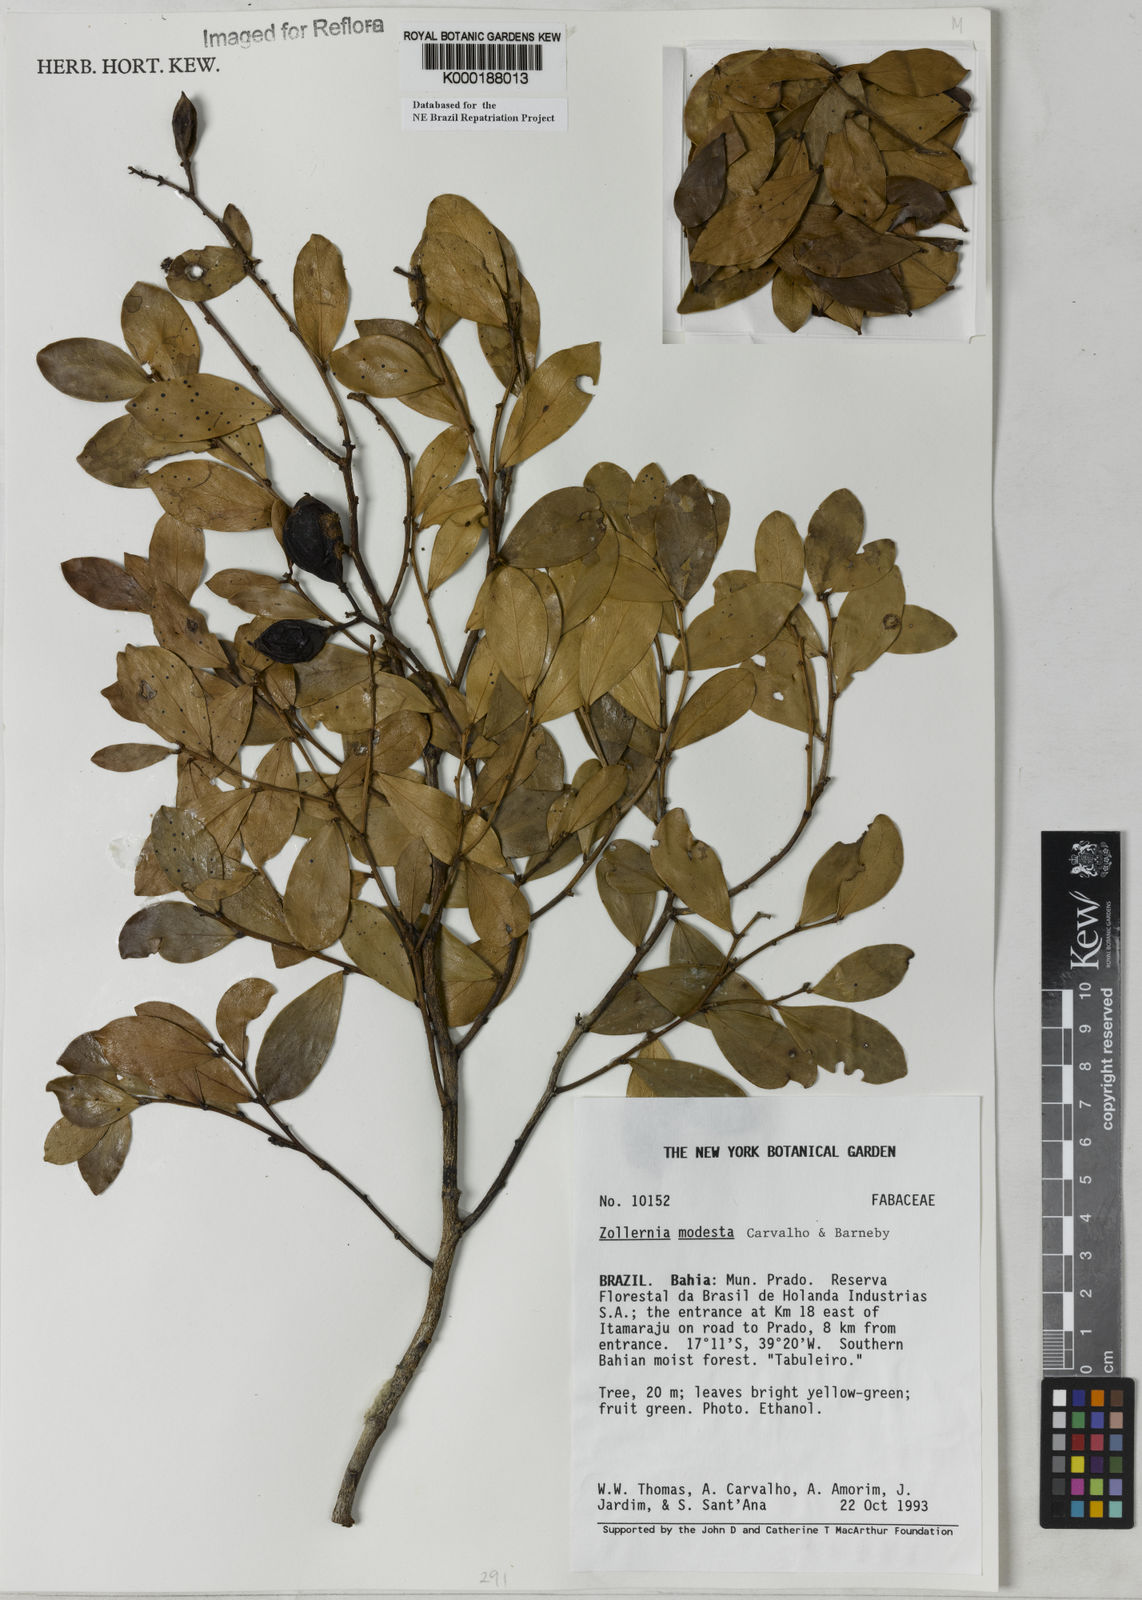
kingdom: Plantae
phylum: Tracheophyta
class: Magnoliopsida
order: Fabales
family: Fabaceae
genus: Zollernia
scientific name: Zollernia modesta
